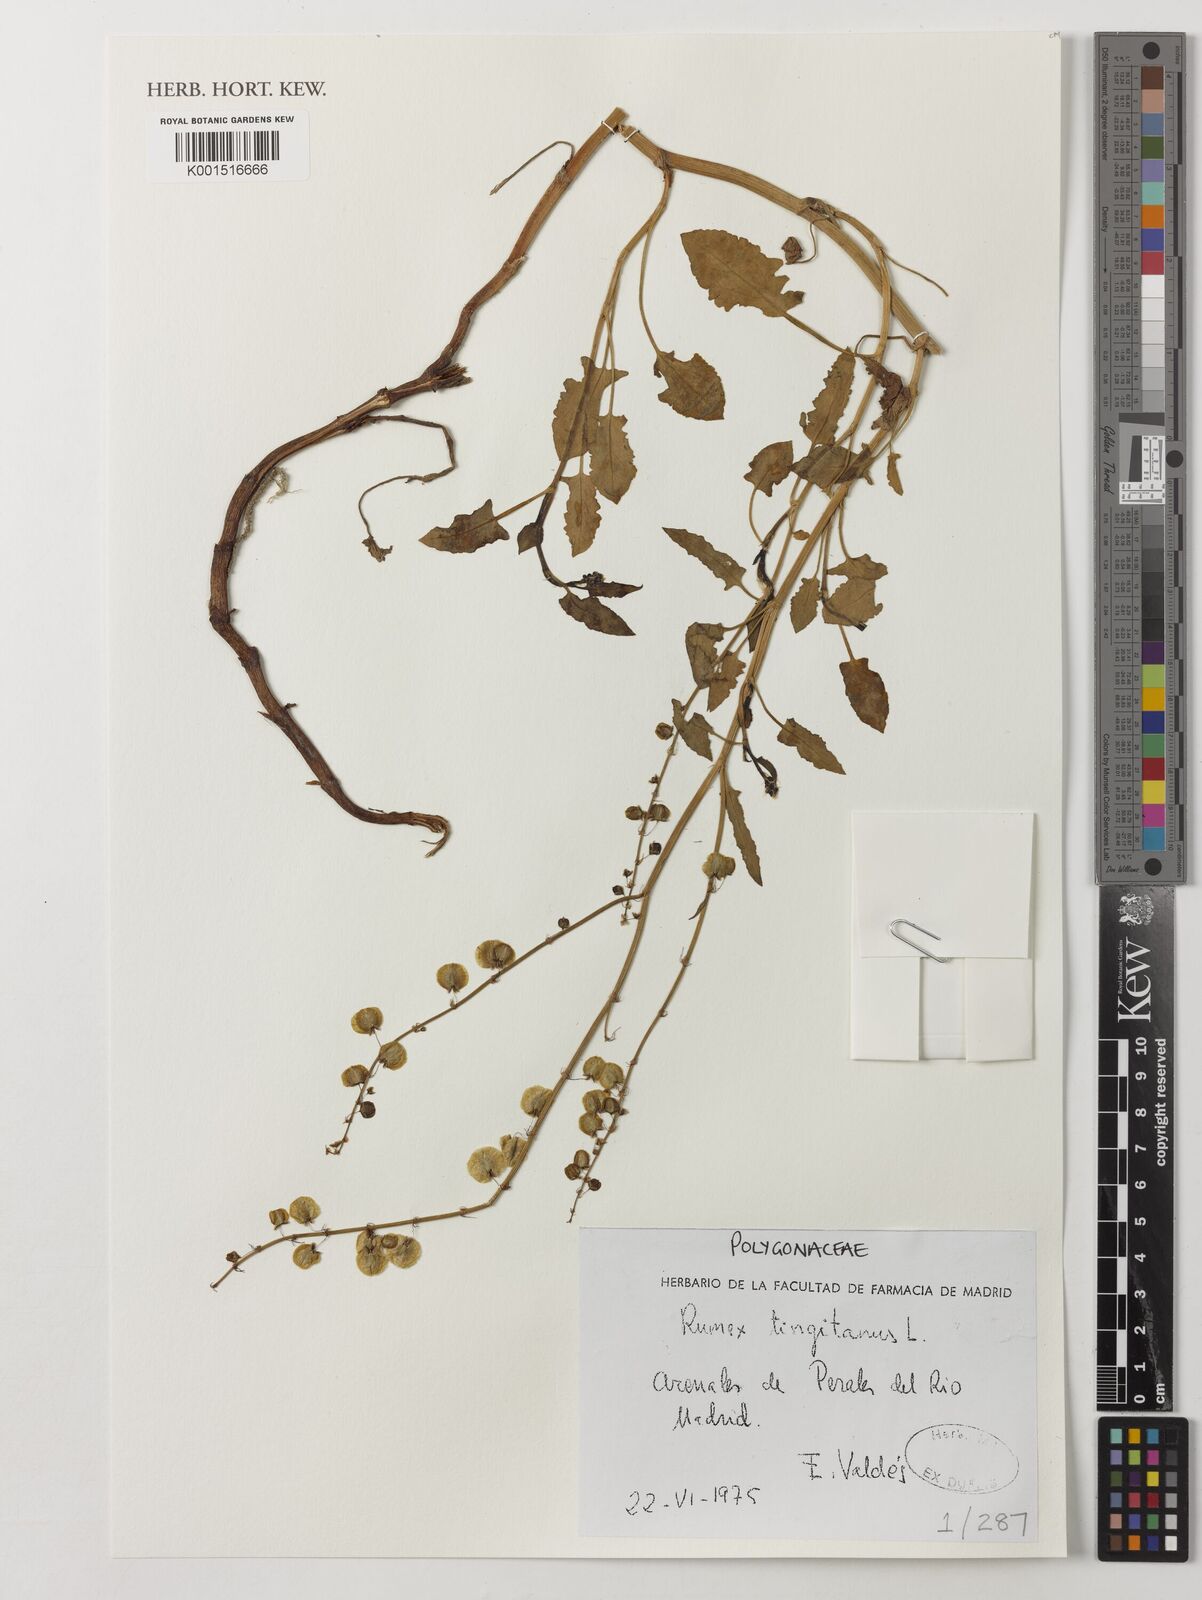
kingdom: Plantae
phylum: Tracheophyta
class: Magnoliopsida
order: Caryophyllales
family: Polygonaceae
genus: Rumex
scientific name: Rumex roseus
